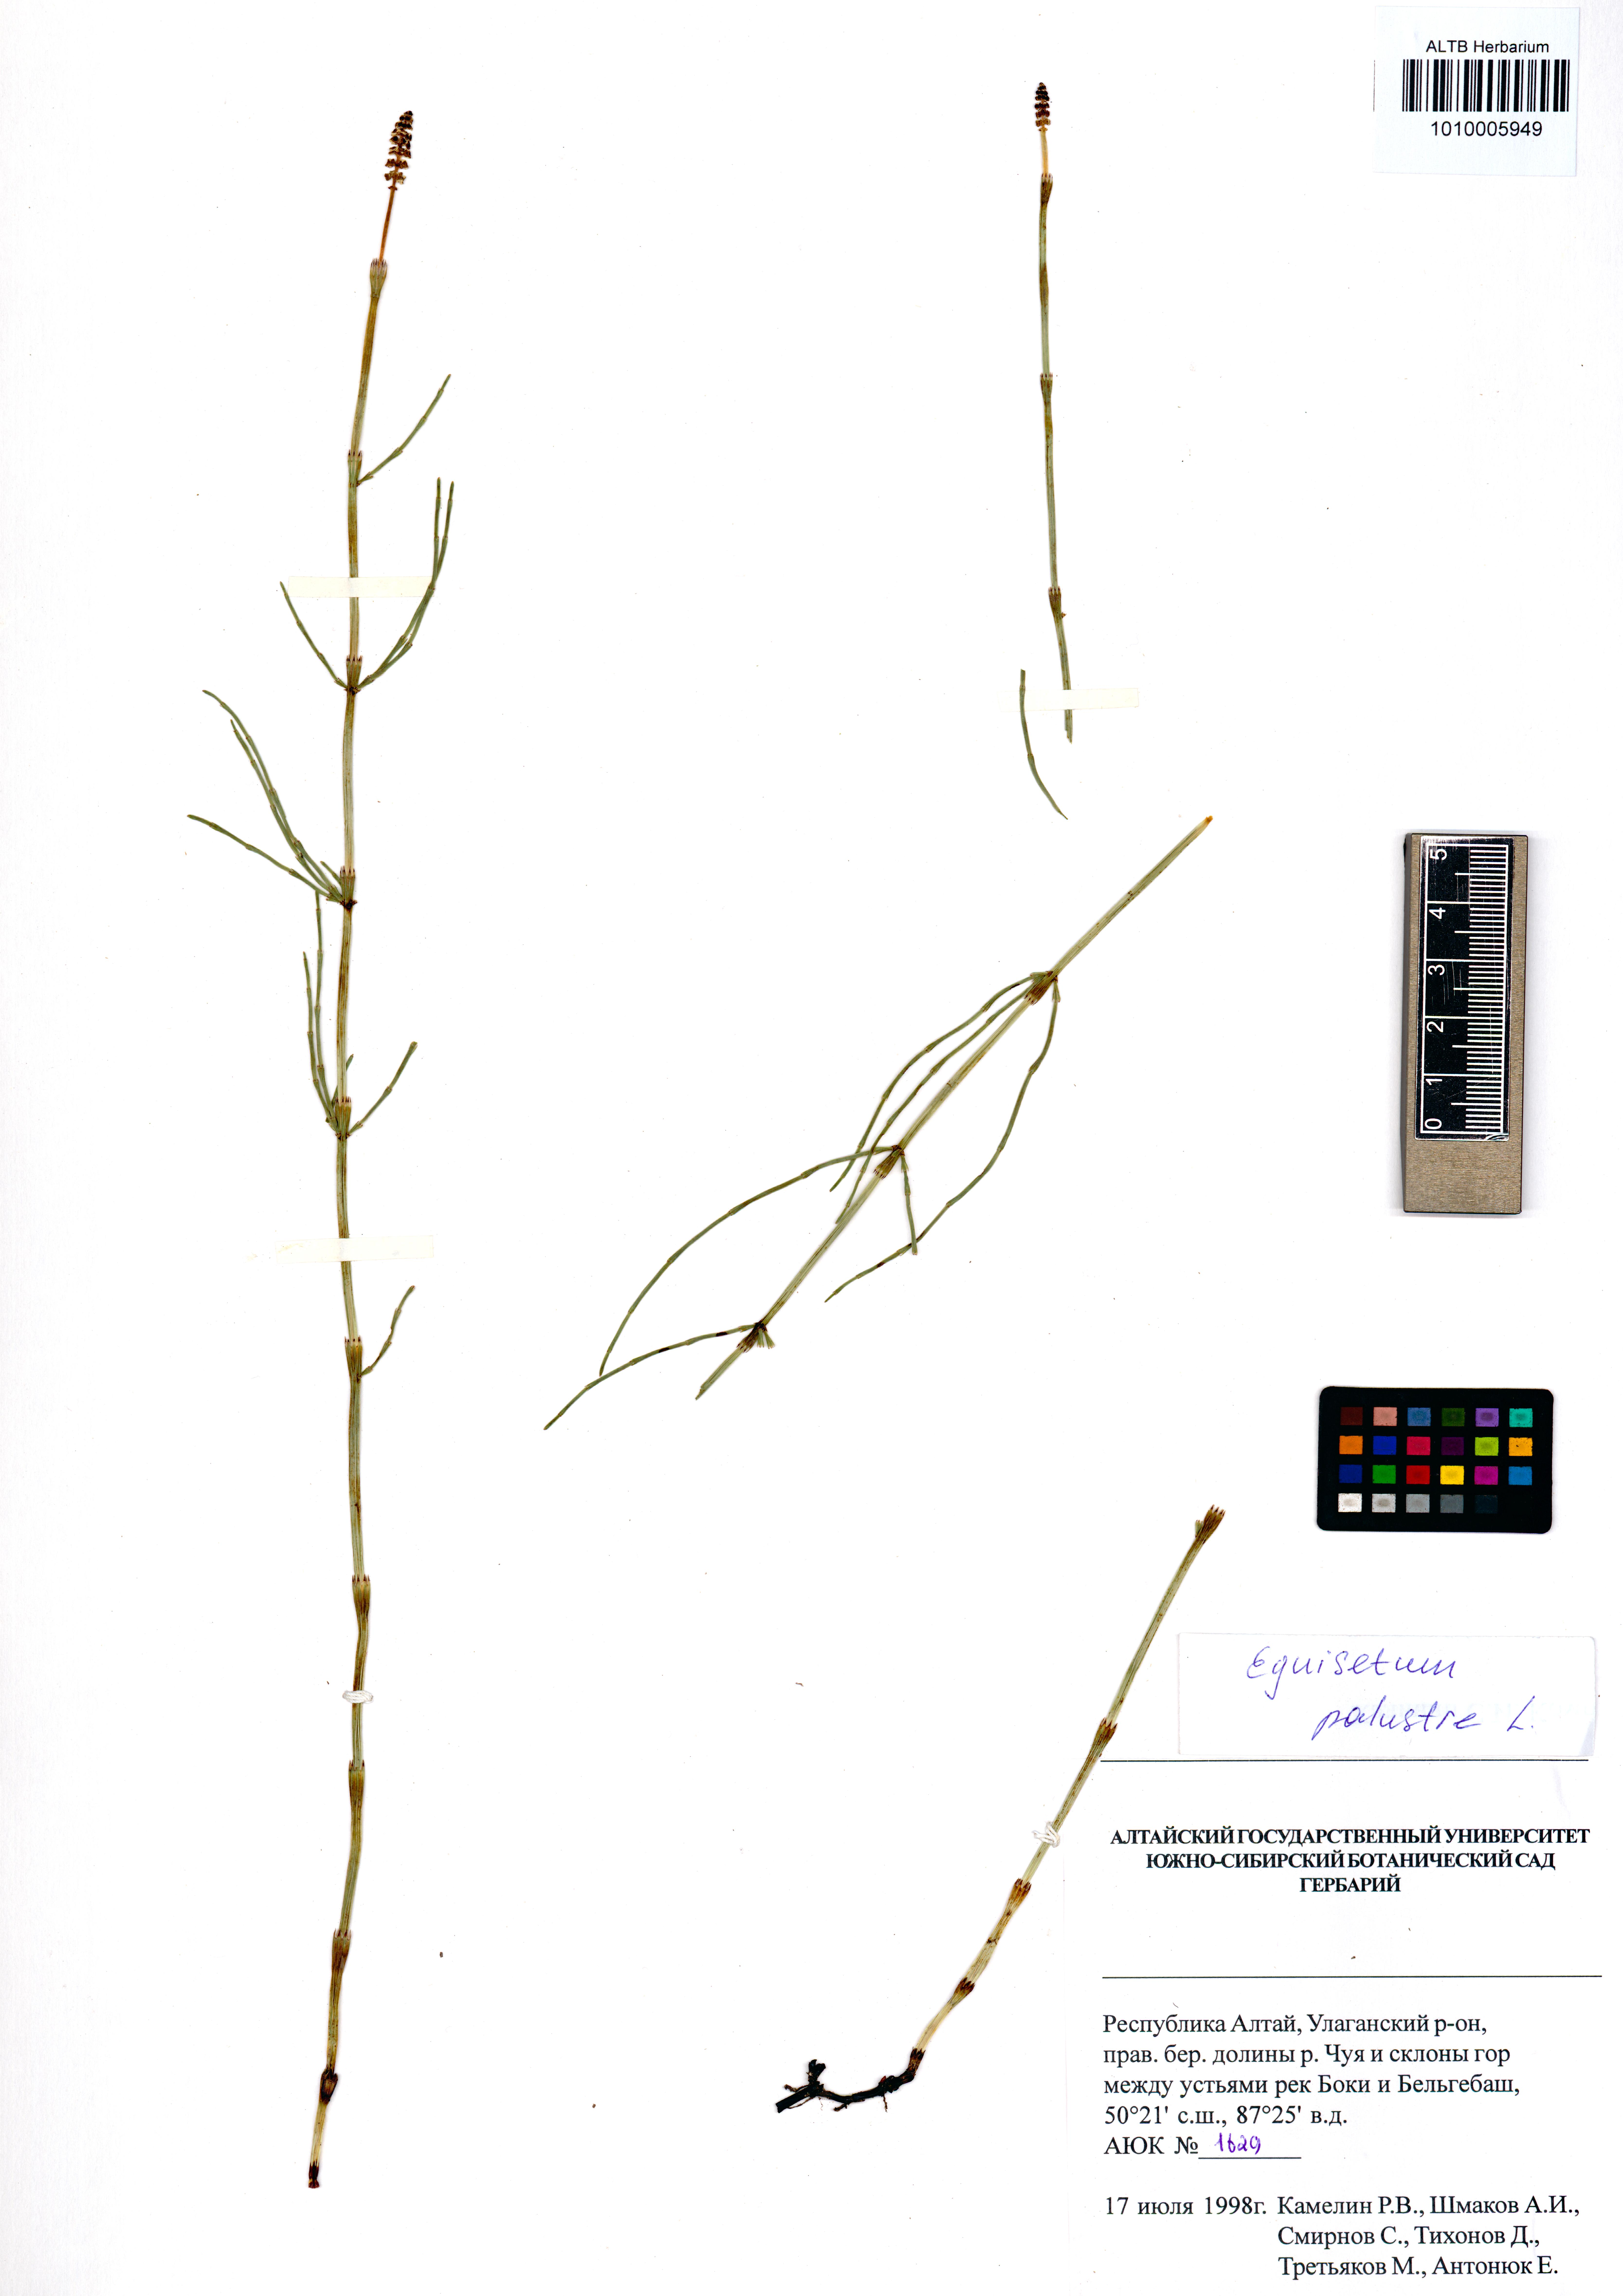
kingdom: Plantae
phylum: Tracheophyta
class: Polypodiopsida
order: Equisetales
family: Equisetaceae
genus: Equisetum
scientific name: Equisetum palustre
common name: Marsh horsetail
